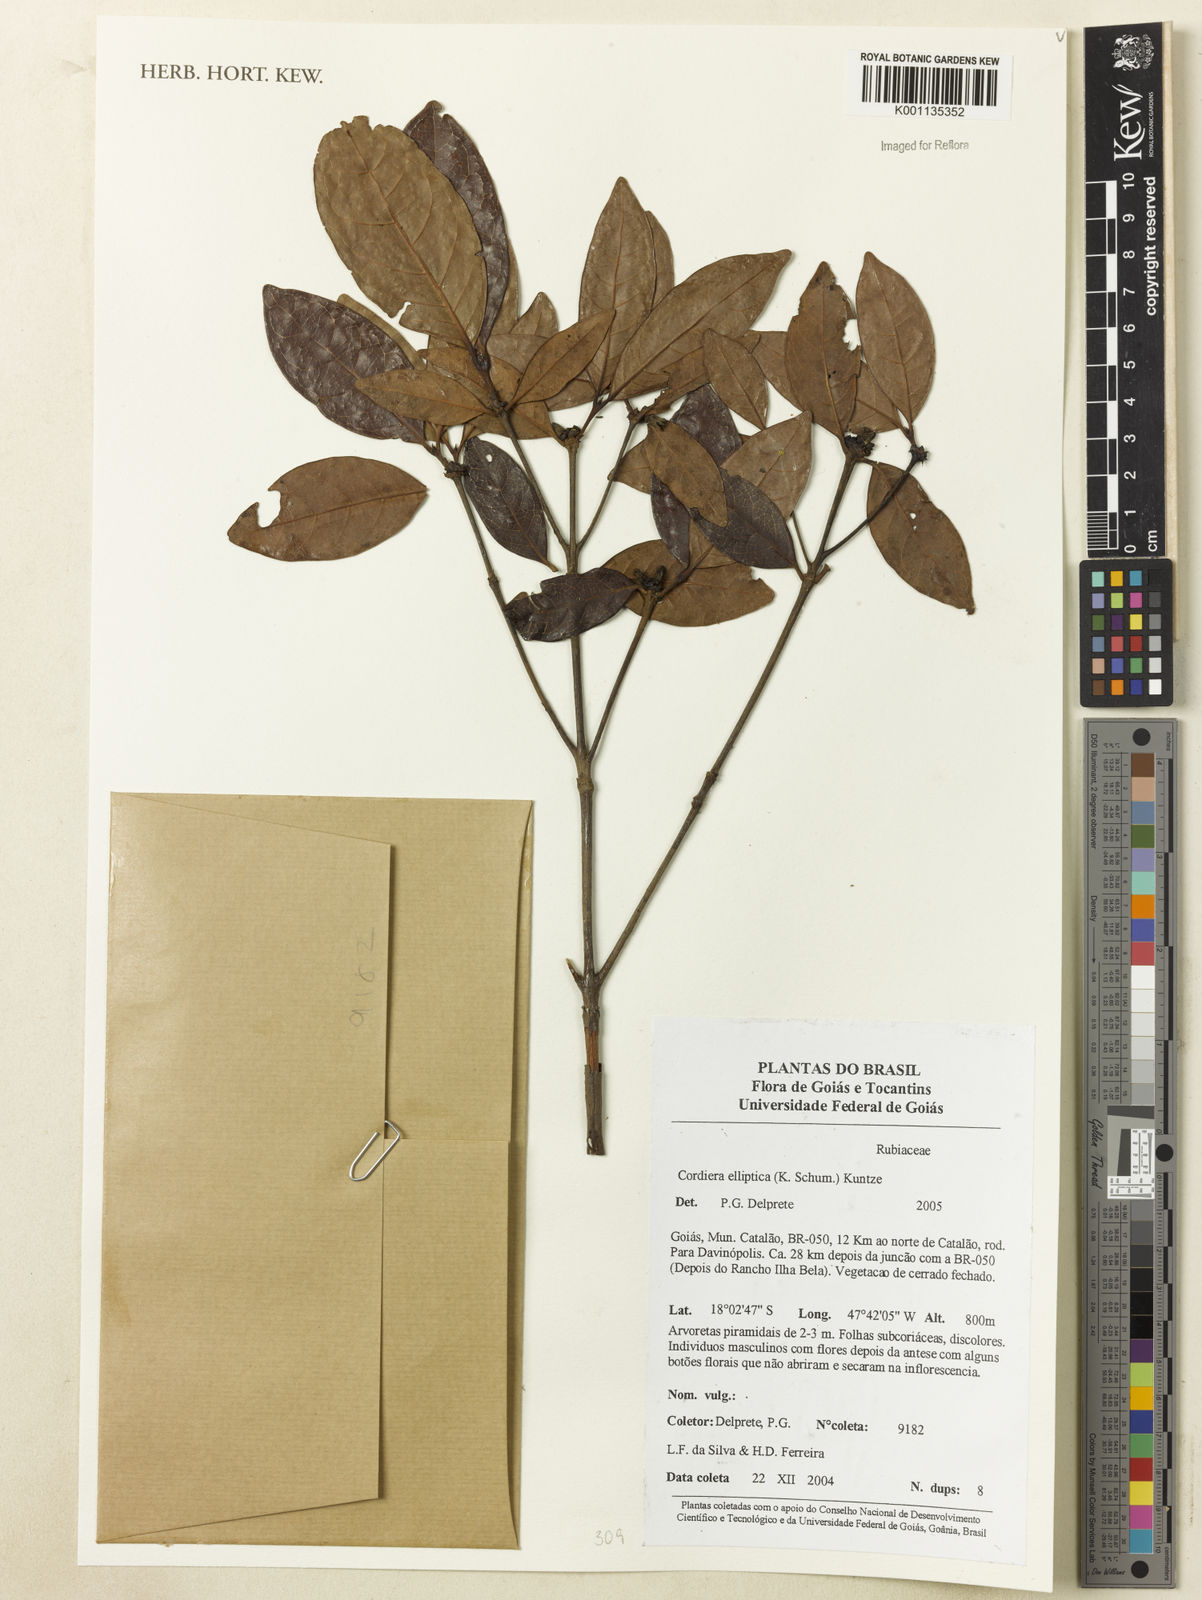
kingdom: Plantae
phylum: Tracheophyta
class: Magnoliopsida
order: Gentianales
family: Rubiaceae
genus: Cordiera
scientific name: Cordiera elliptica
